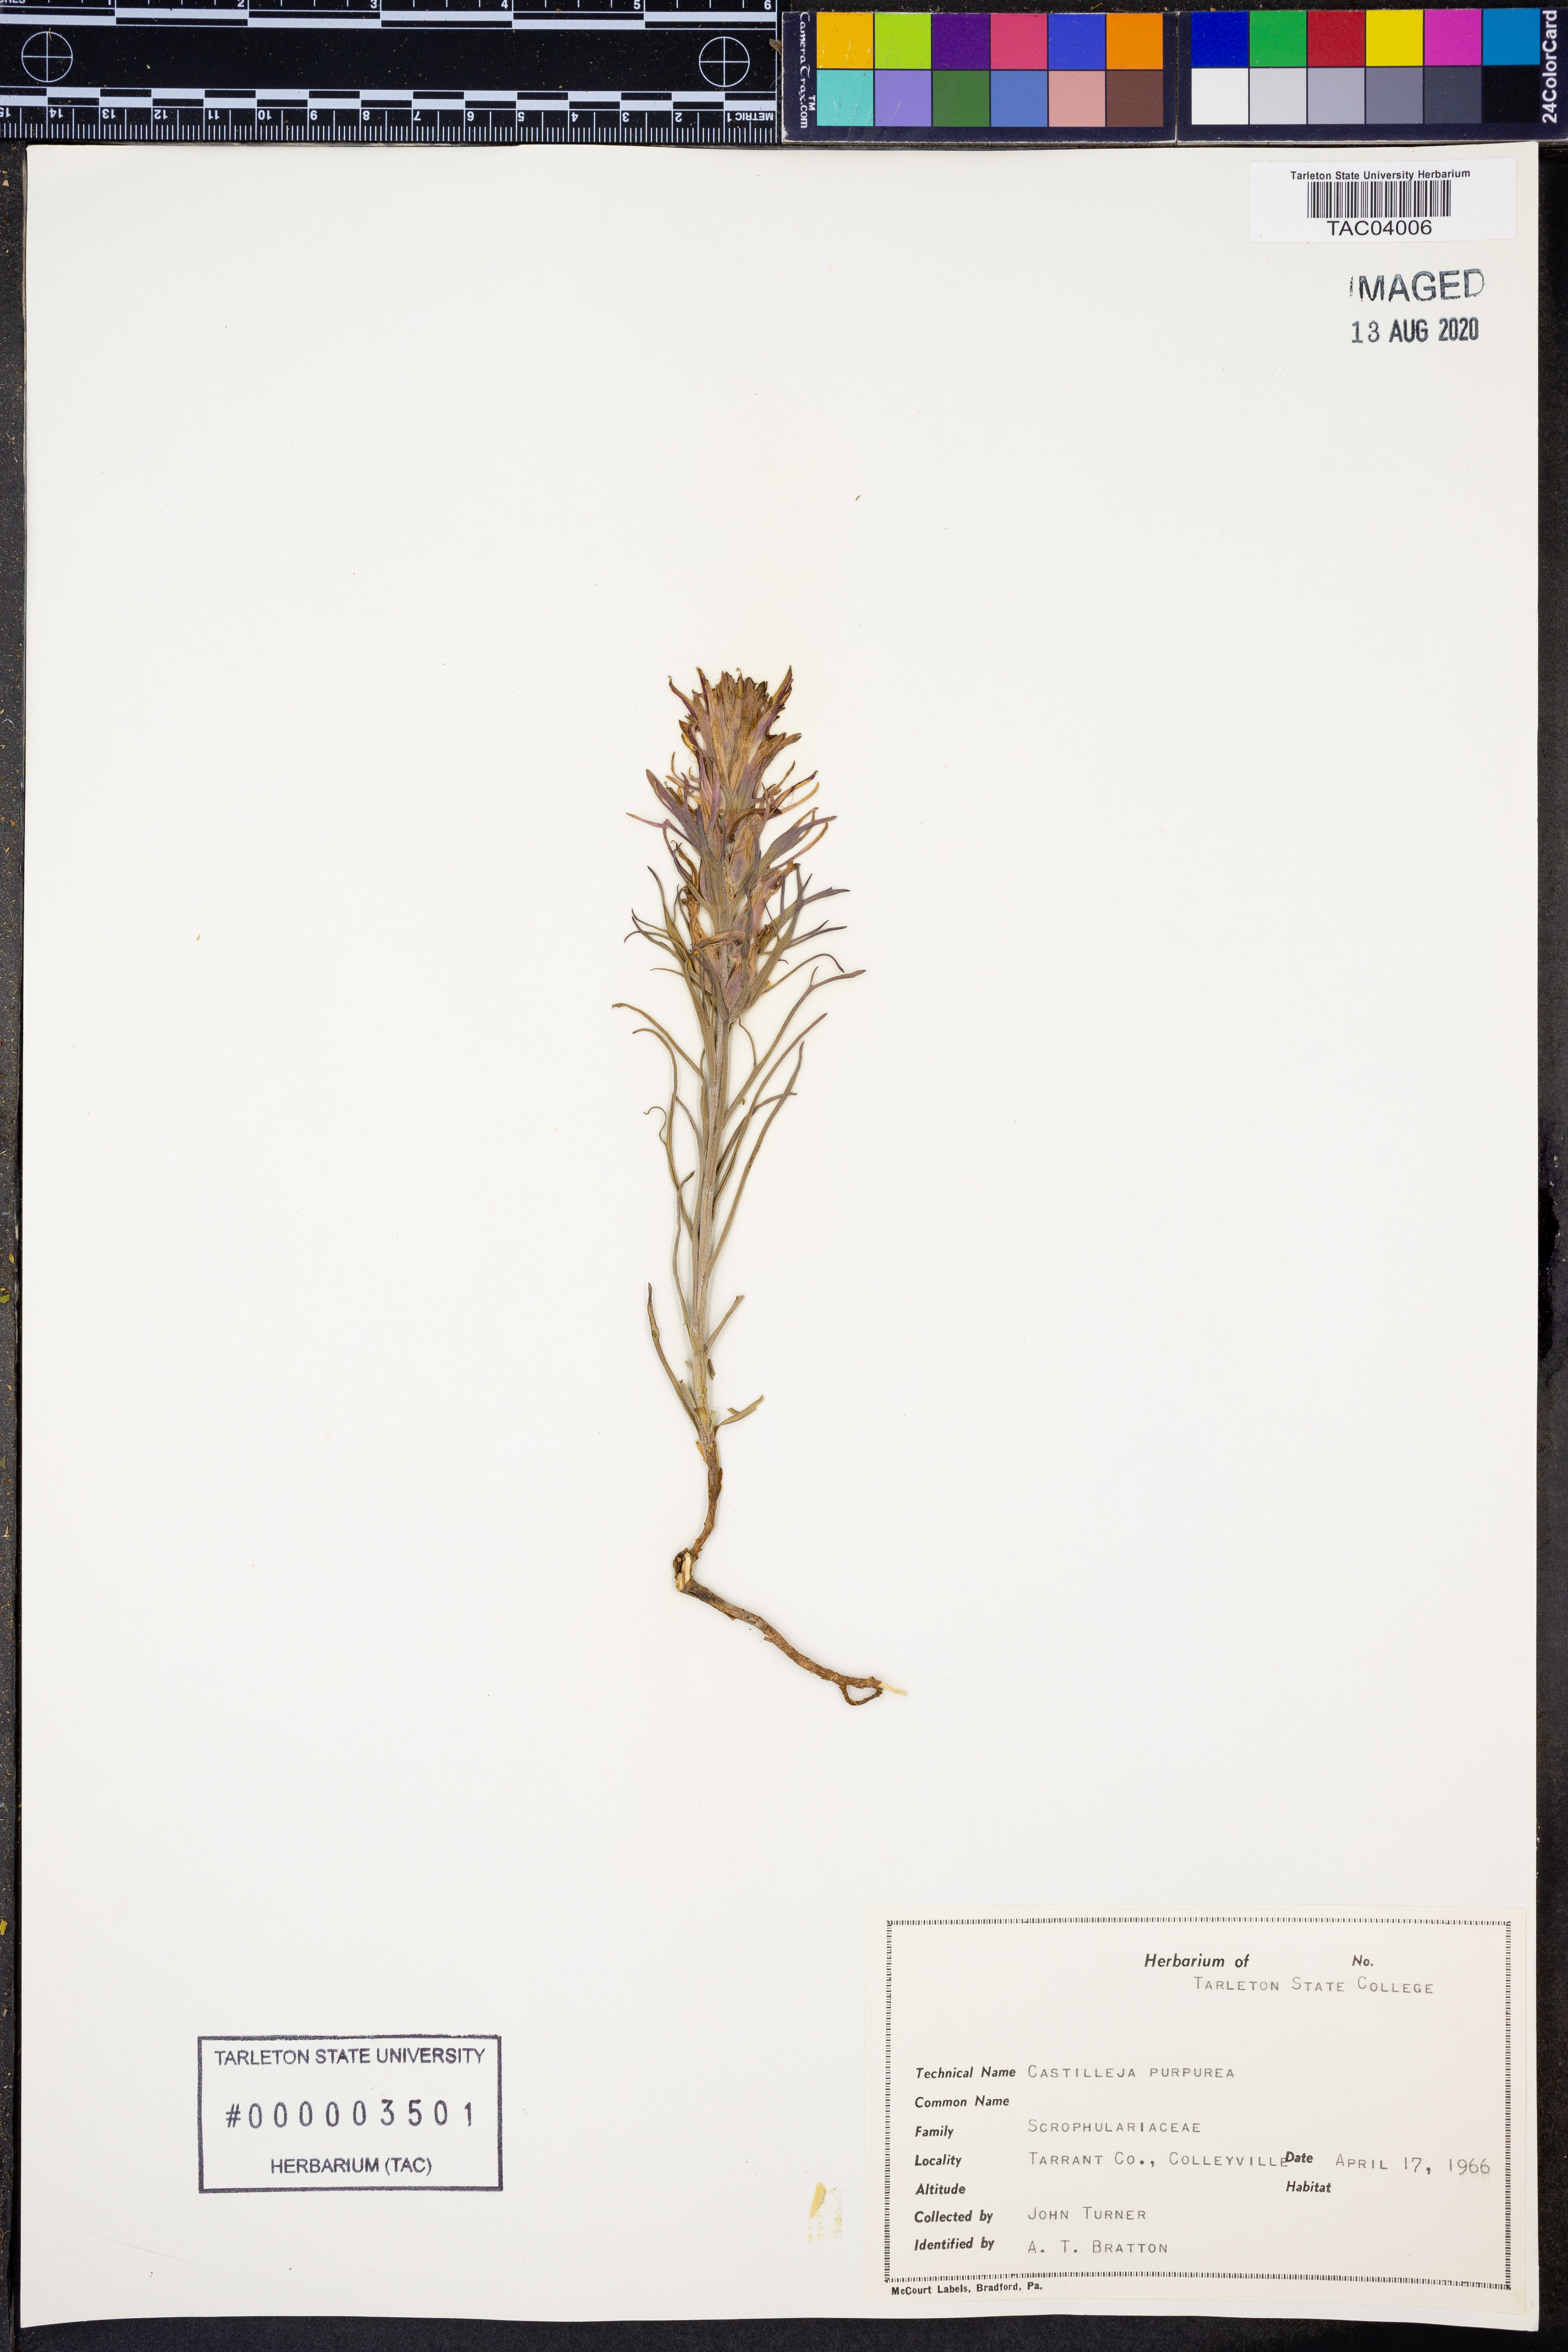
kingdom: Plantae
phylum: Tracheophyta
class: Magnoliopsida
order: Lamiales
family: Orobanchaceae
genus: Castilleja
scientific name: Castilleja purpurea
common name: Plains paintbrush
